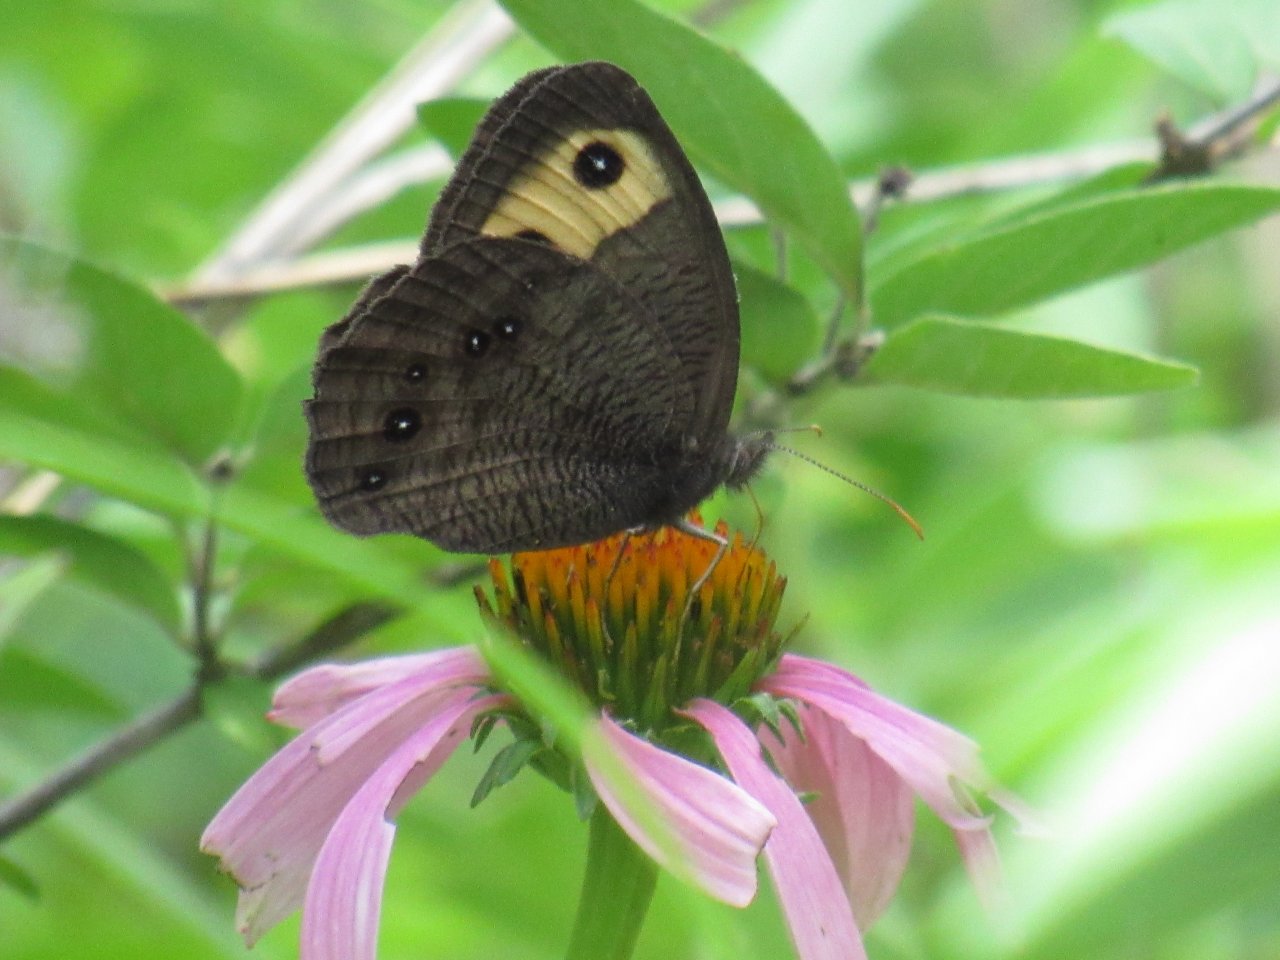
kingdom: Animalia
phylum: Arthropoda
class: Insecta
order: Lepidoptera
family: Nymphalidae
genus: Cercyonis
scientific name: Cercyonis pegala
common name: Common Wood-Nymph
